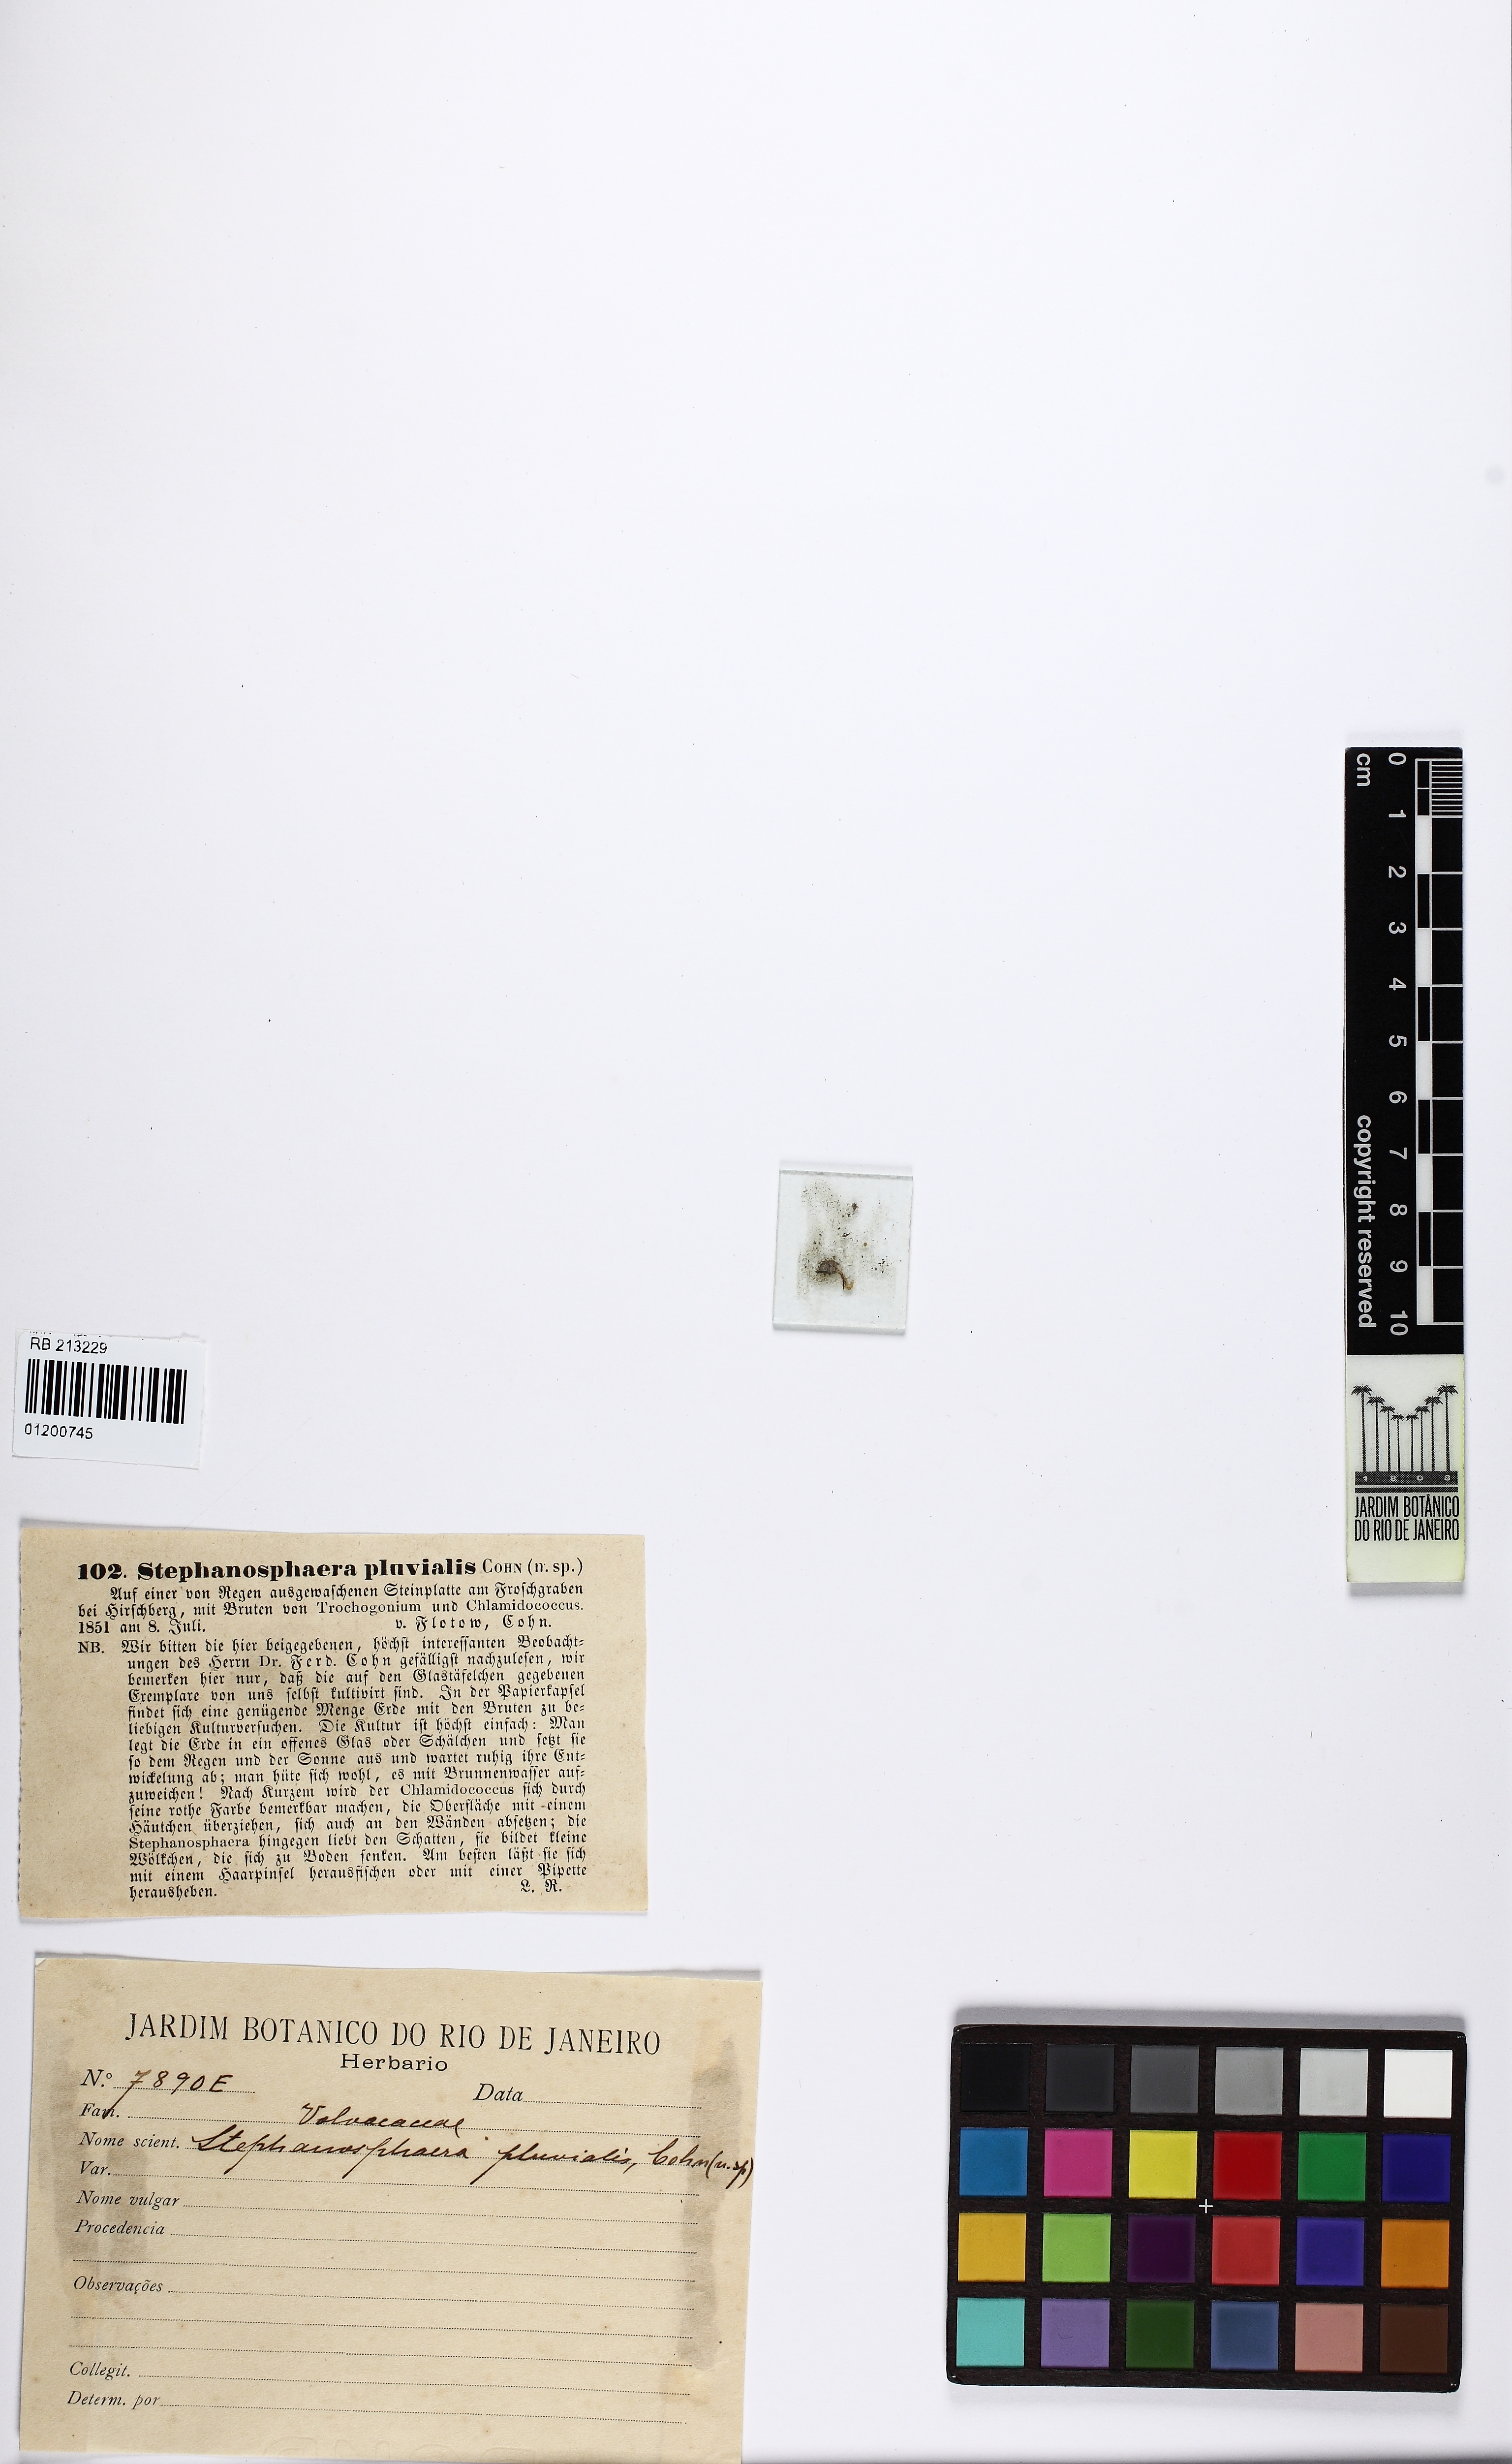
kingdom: Plantae
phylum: Chlorophyta
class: Chlorophyceae
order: Volvocales
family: Haematococcaceae
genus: Stephanosphaera
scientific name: Stephanosphaera pluvialis
